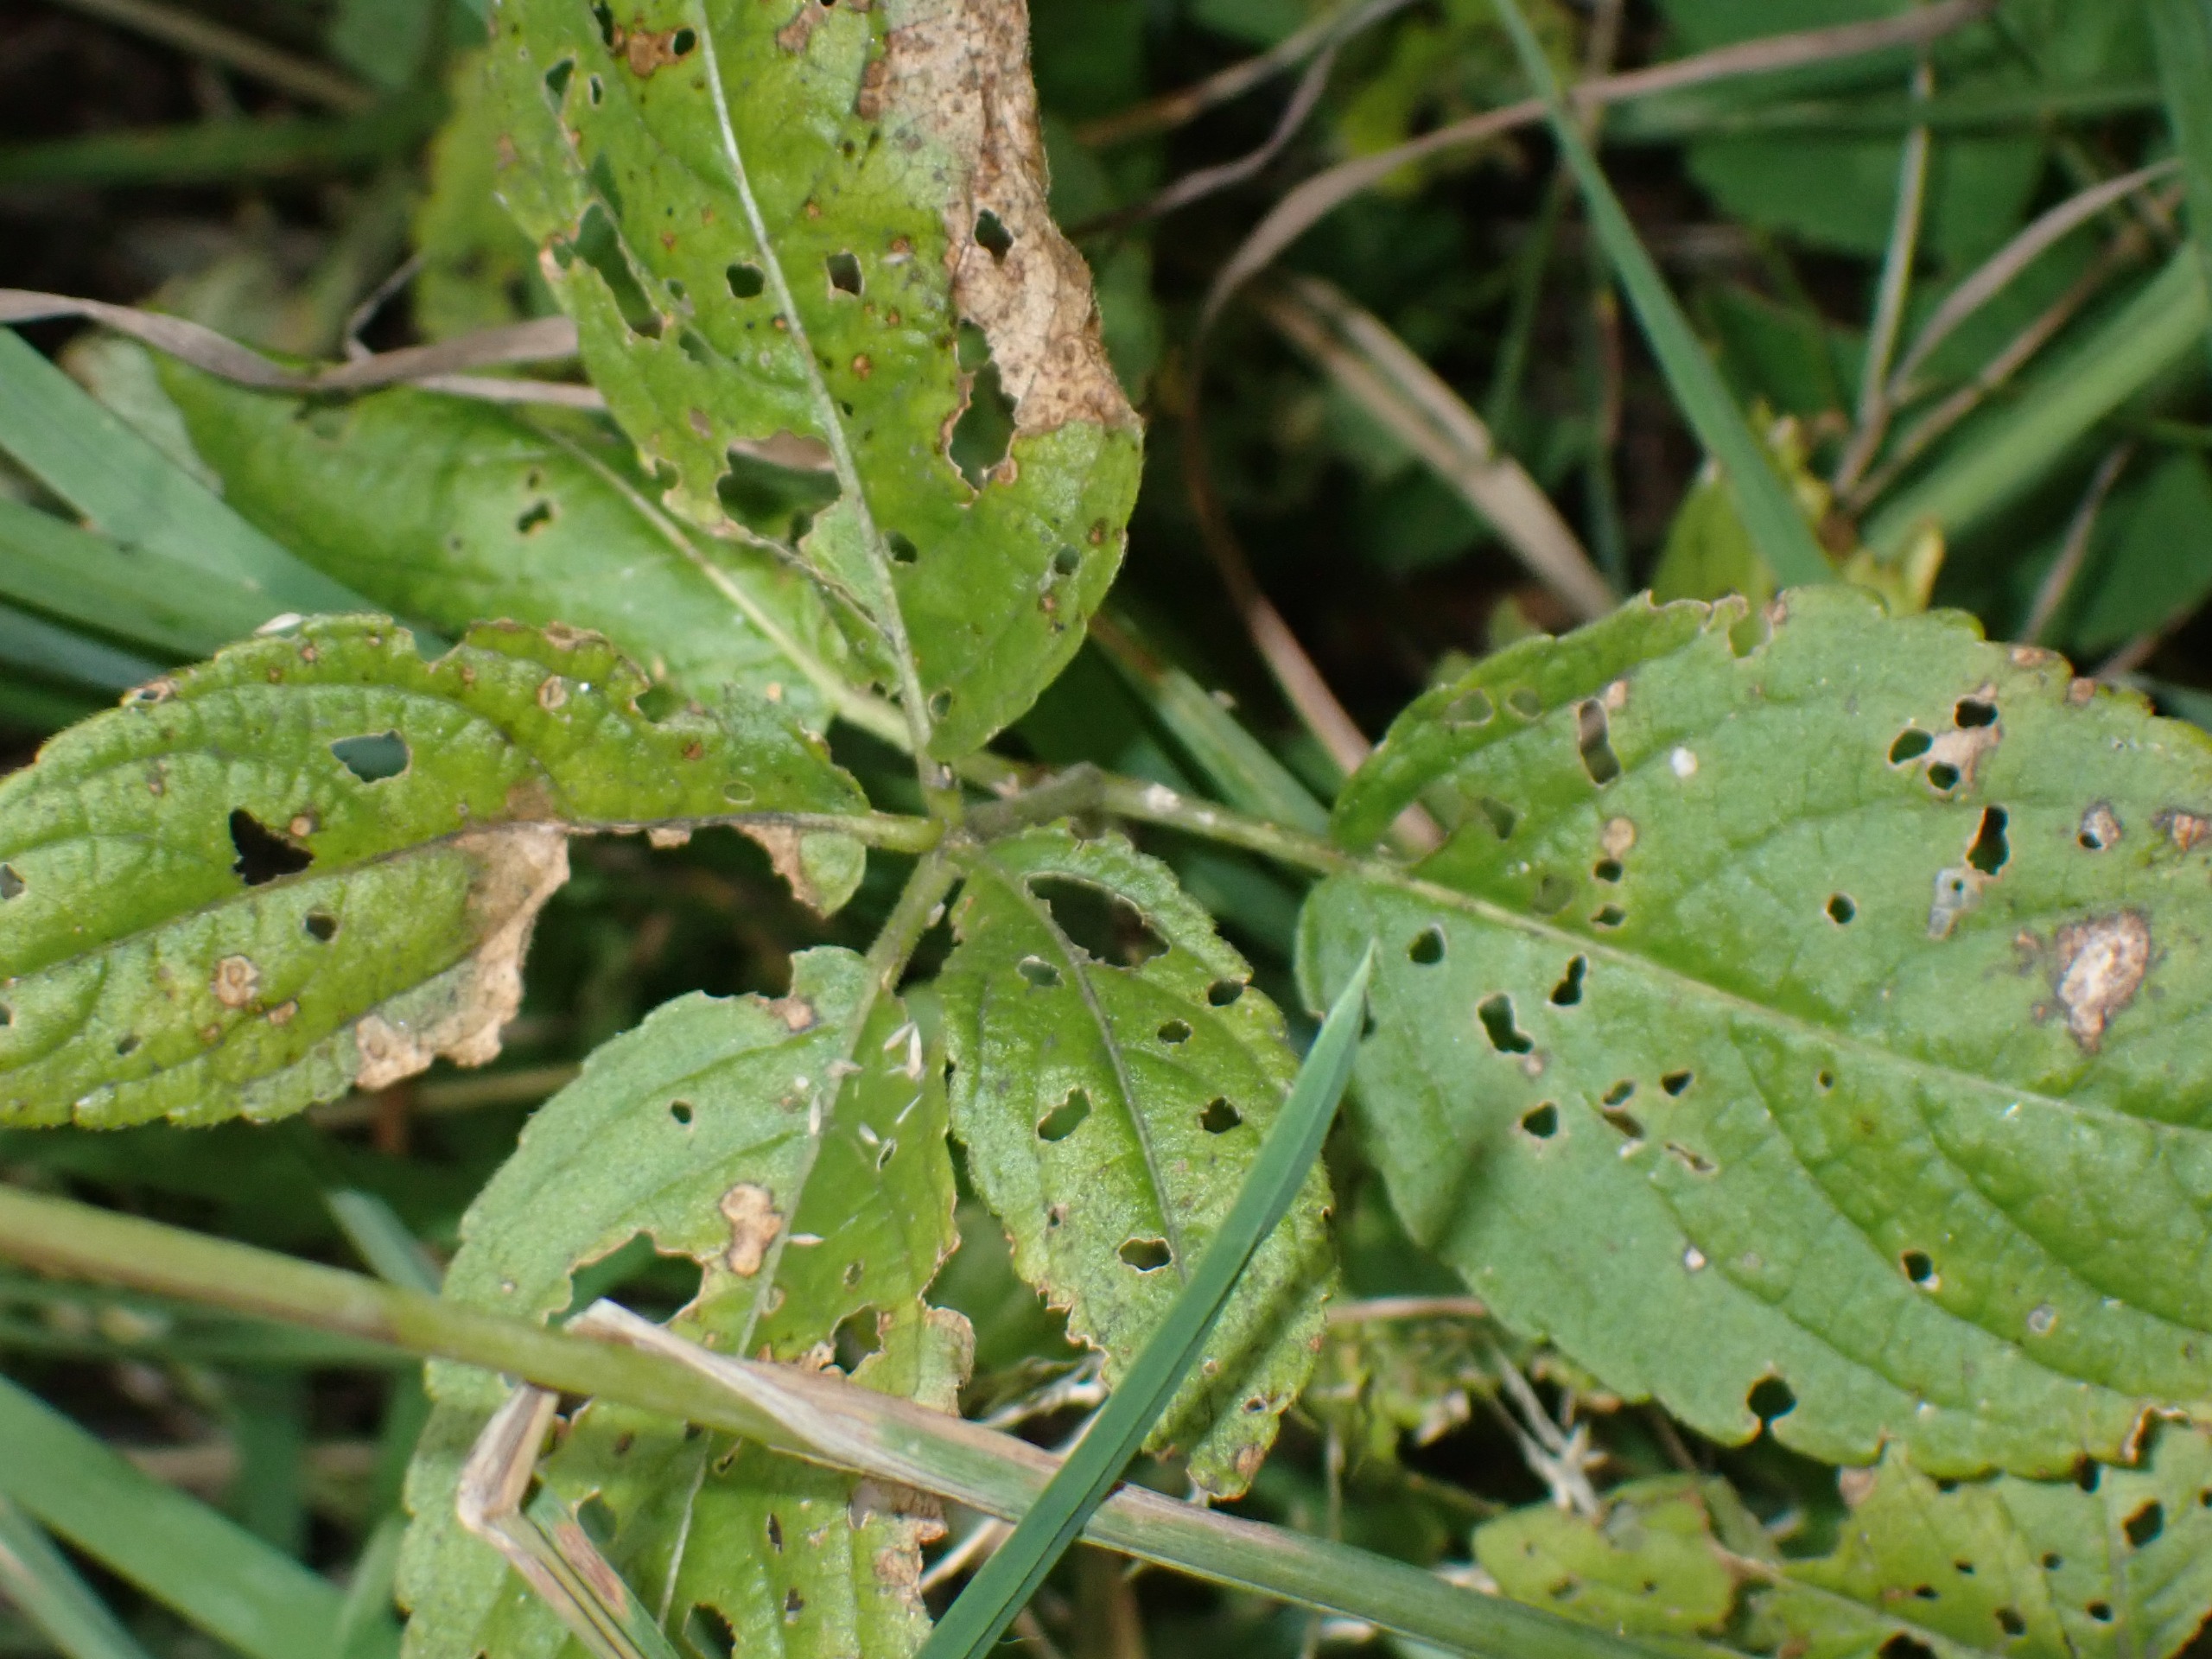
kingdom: Plantae
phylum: Tracheophyta
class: Magnoliopsida
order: Malpighiales
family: Euphorbiaceae
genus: Mercurialis
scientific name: Mercurialis perennis
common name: Almindelig bingelurt
